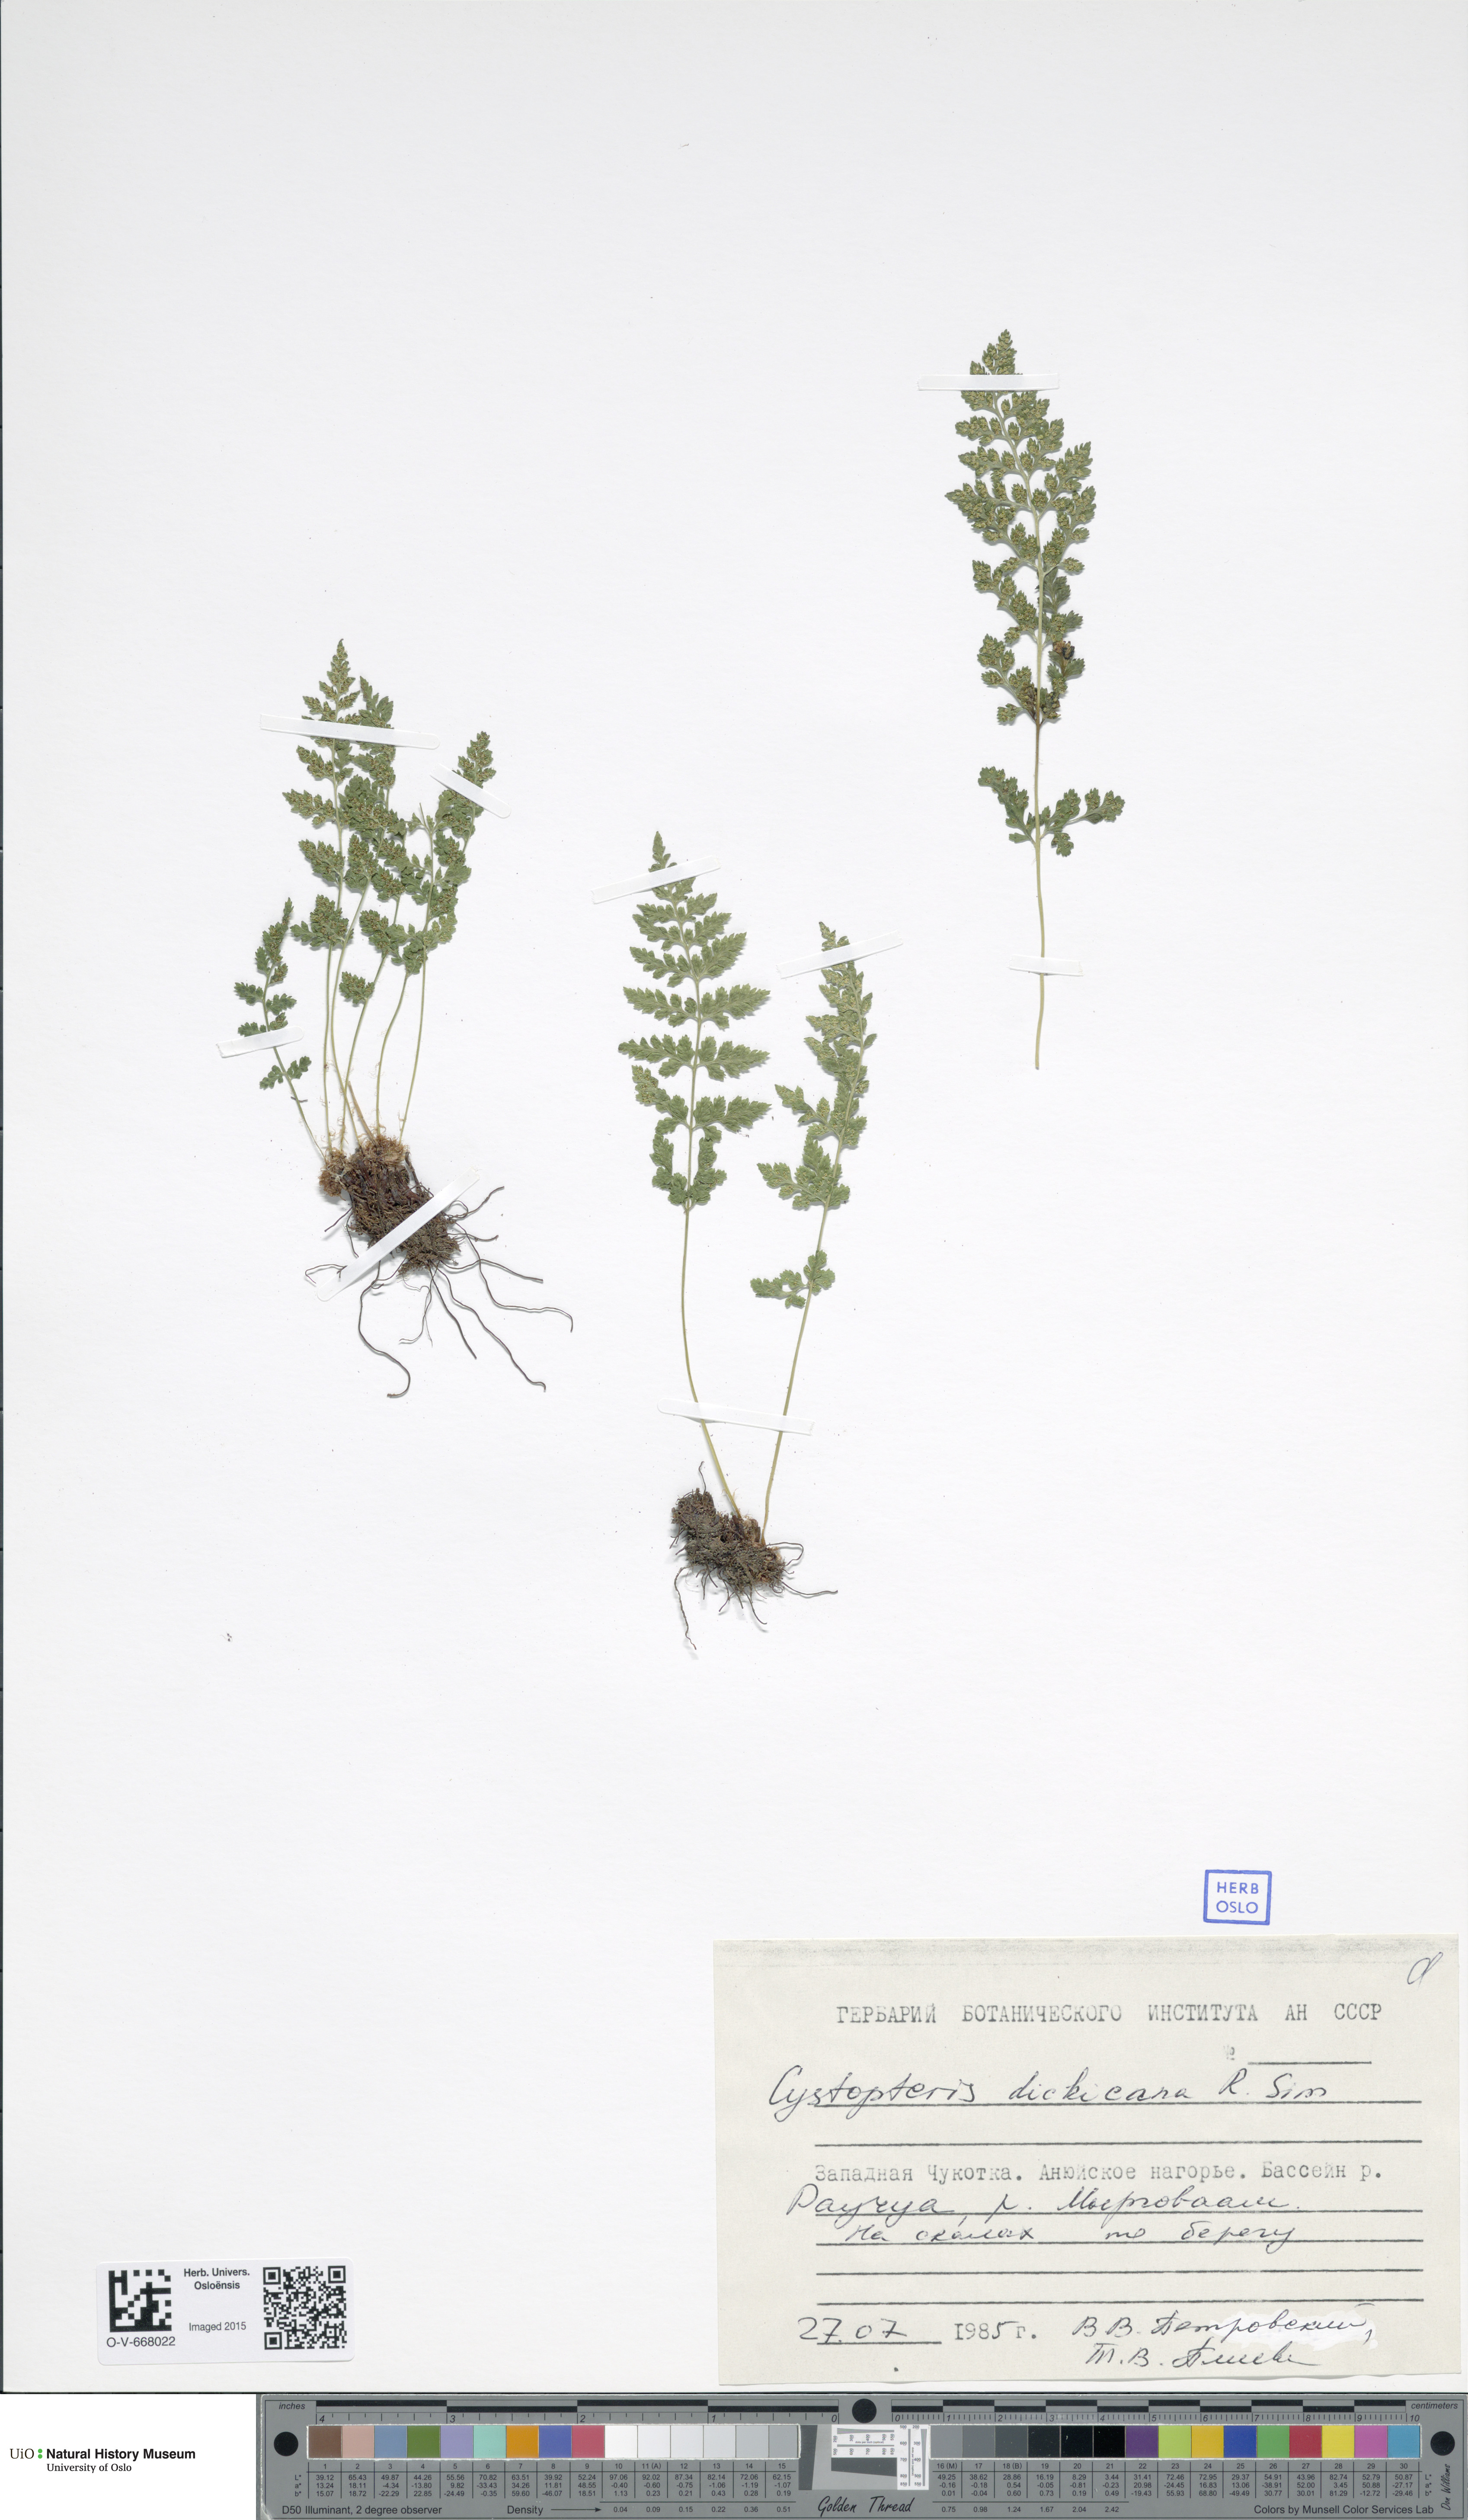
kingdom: Plantae
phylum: Tracheophyta
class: Polypodiopsida
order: Polypodiales
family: Cystopteridaceae
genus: Cystopteris
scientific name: Cystopteris dickieana
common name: Dickie's bladder-fern
